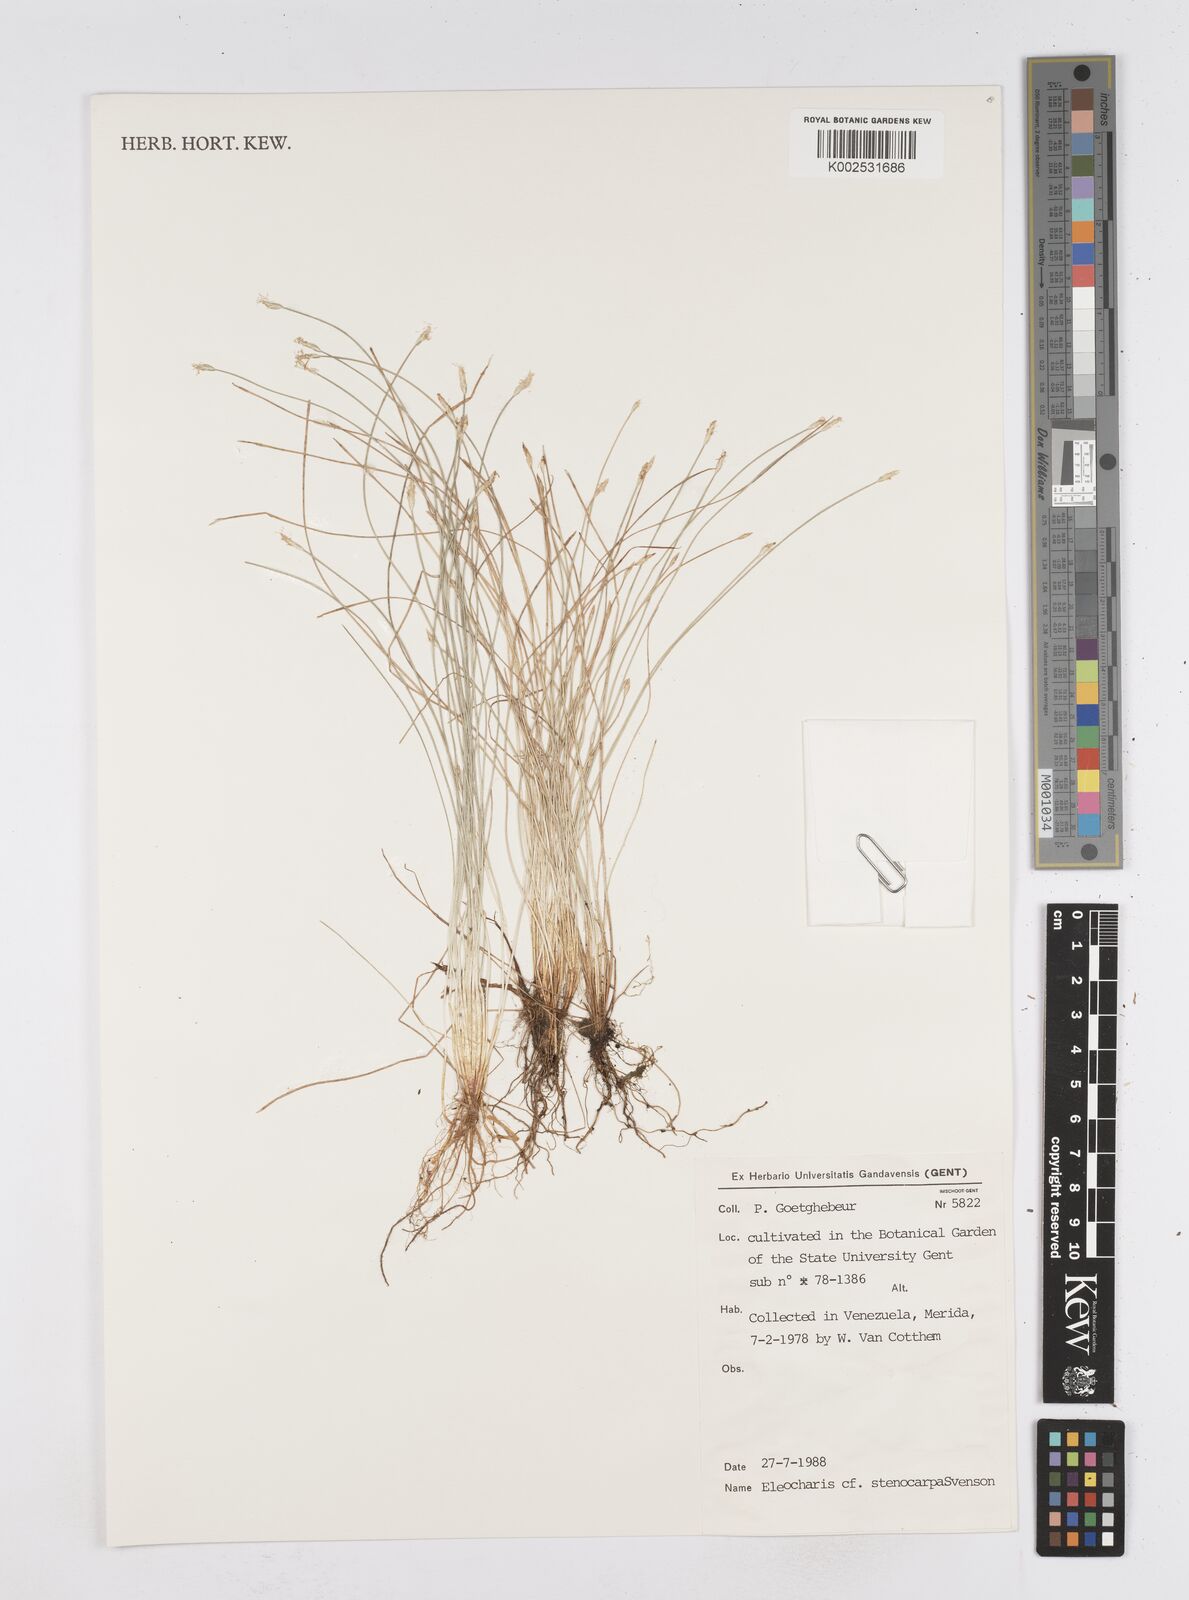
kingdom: Plantae
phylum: Tracheophyta
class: Liliopsida
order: Poales
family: Cyperaceae
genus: Eleocharis
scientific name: Eleocharis
